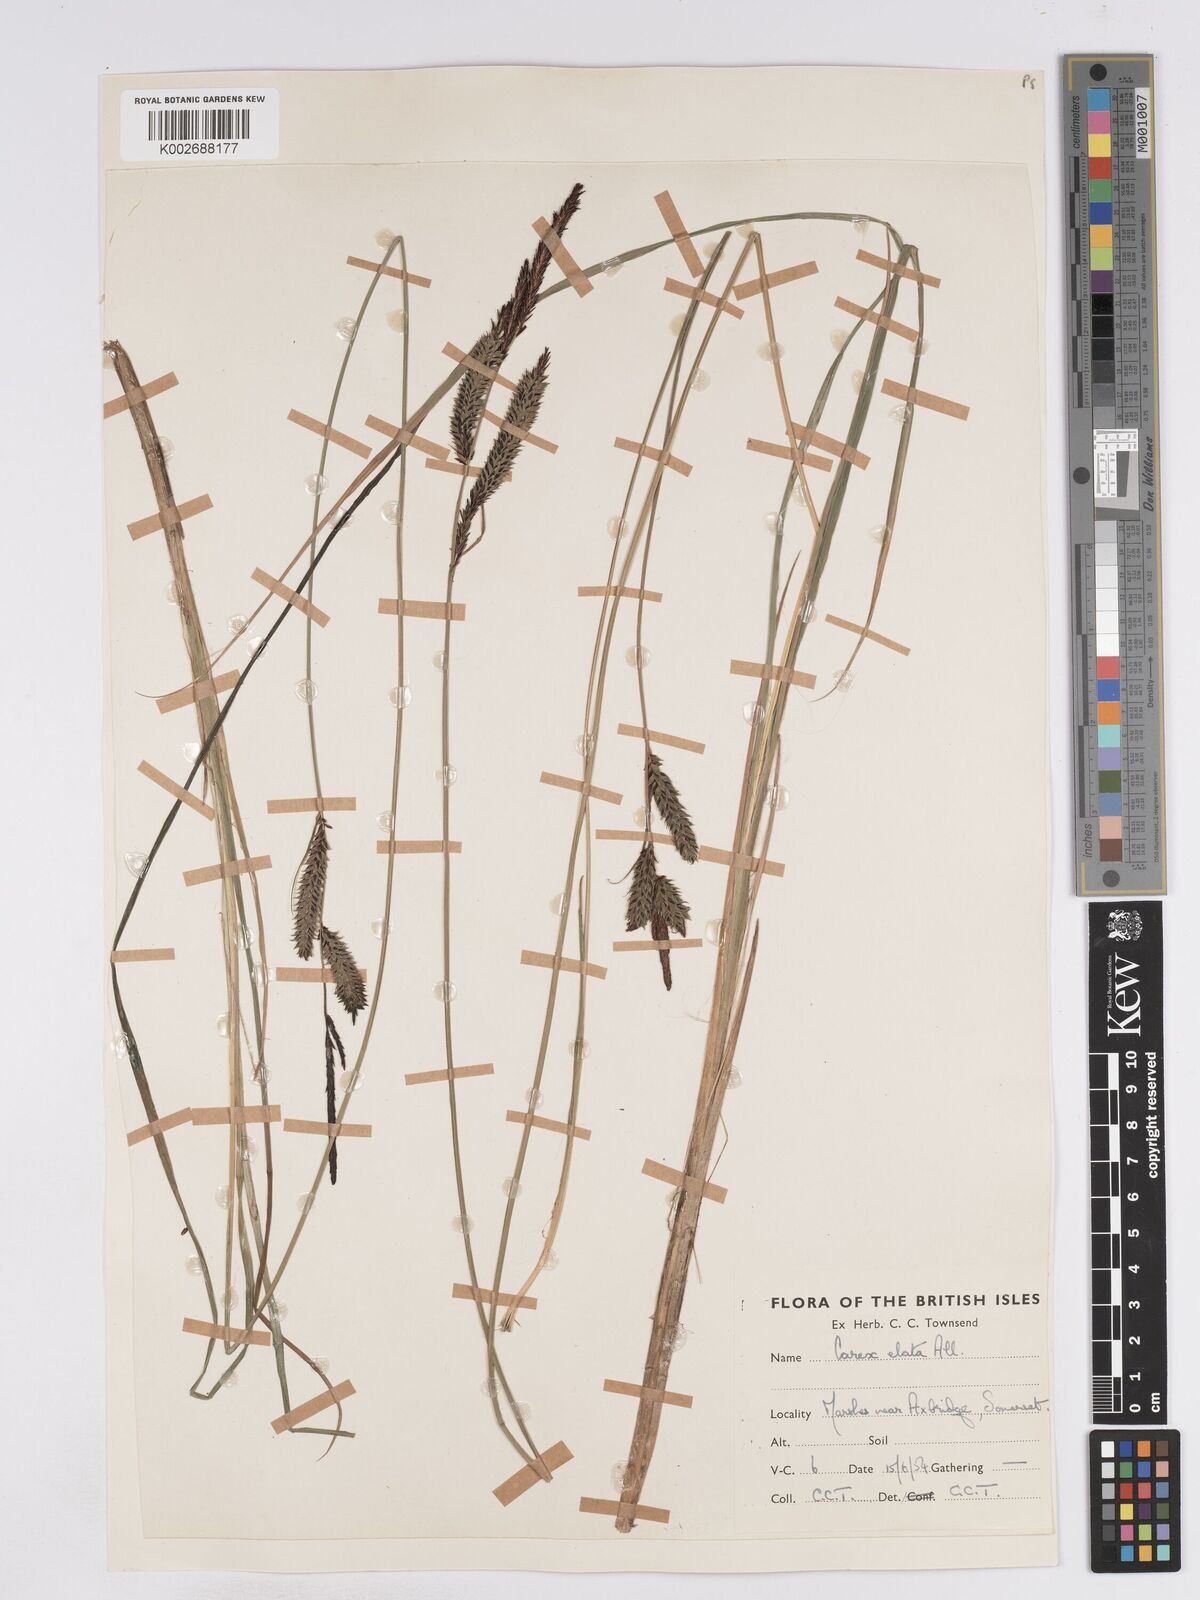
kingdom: Plantae
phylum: Tracheophyta
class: Liliopsida
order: Poales
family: Cyperaceae
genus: Carex
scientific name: Carex elata
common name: Tufted sedge
